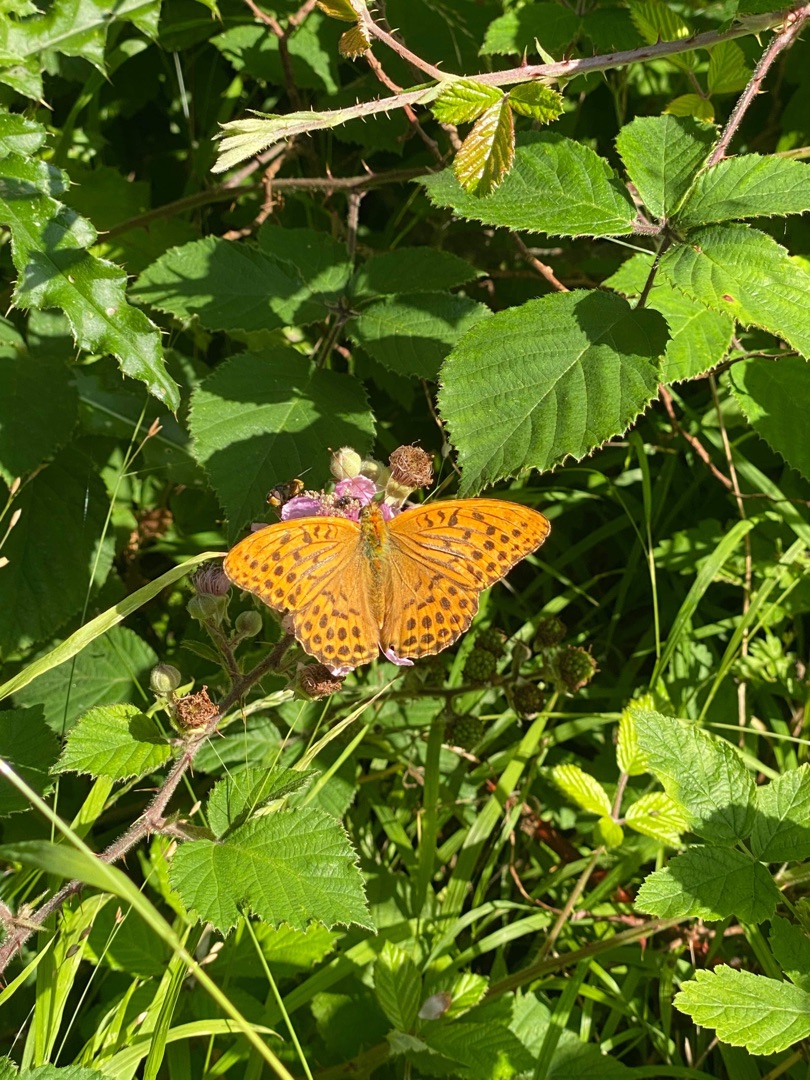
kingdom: Animalia
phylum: Arthropoda
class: Insecta
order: Lepidoptera
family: Nymphalidae
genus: Argynnis
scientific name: Argynnis paphia
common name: Kejserkåbe
